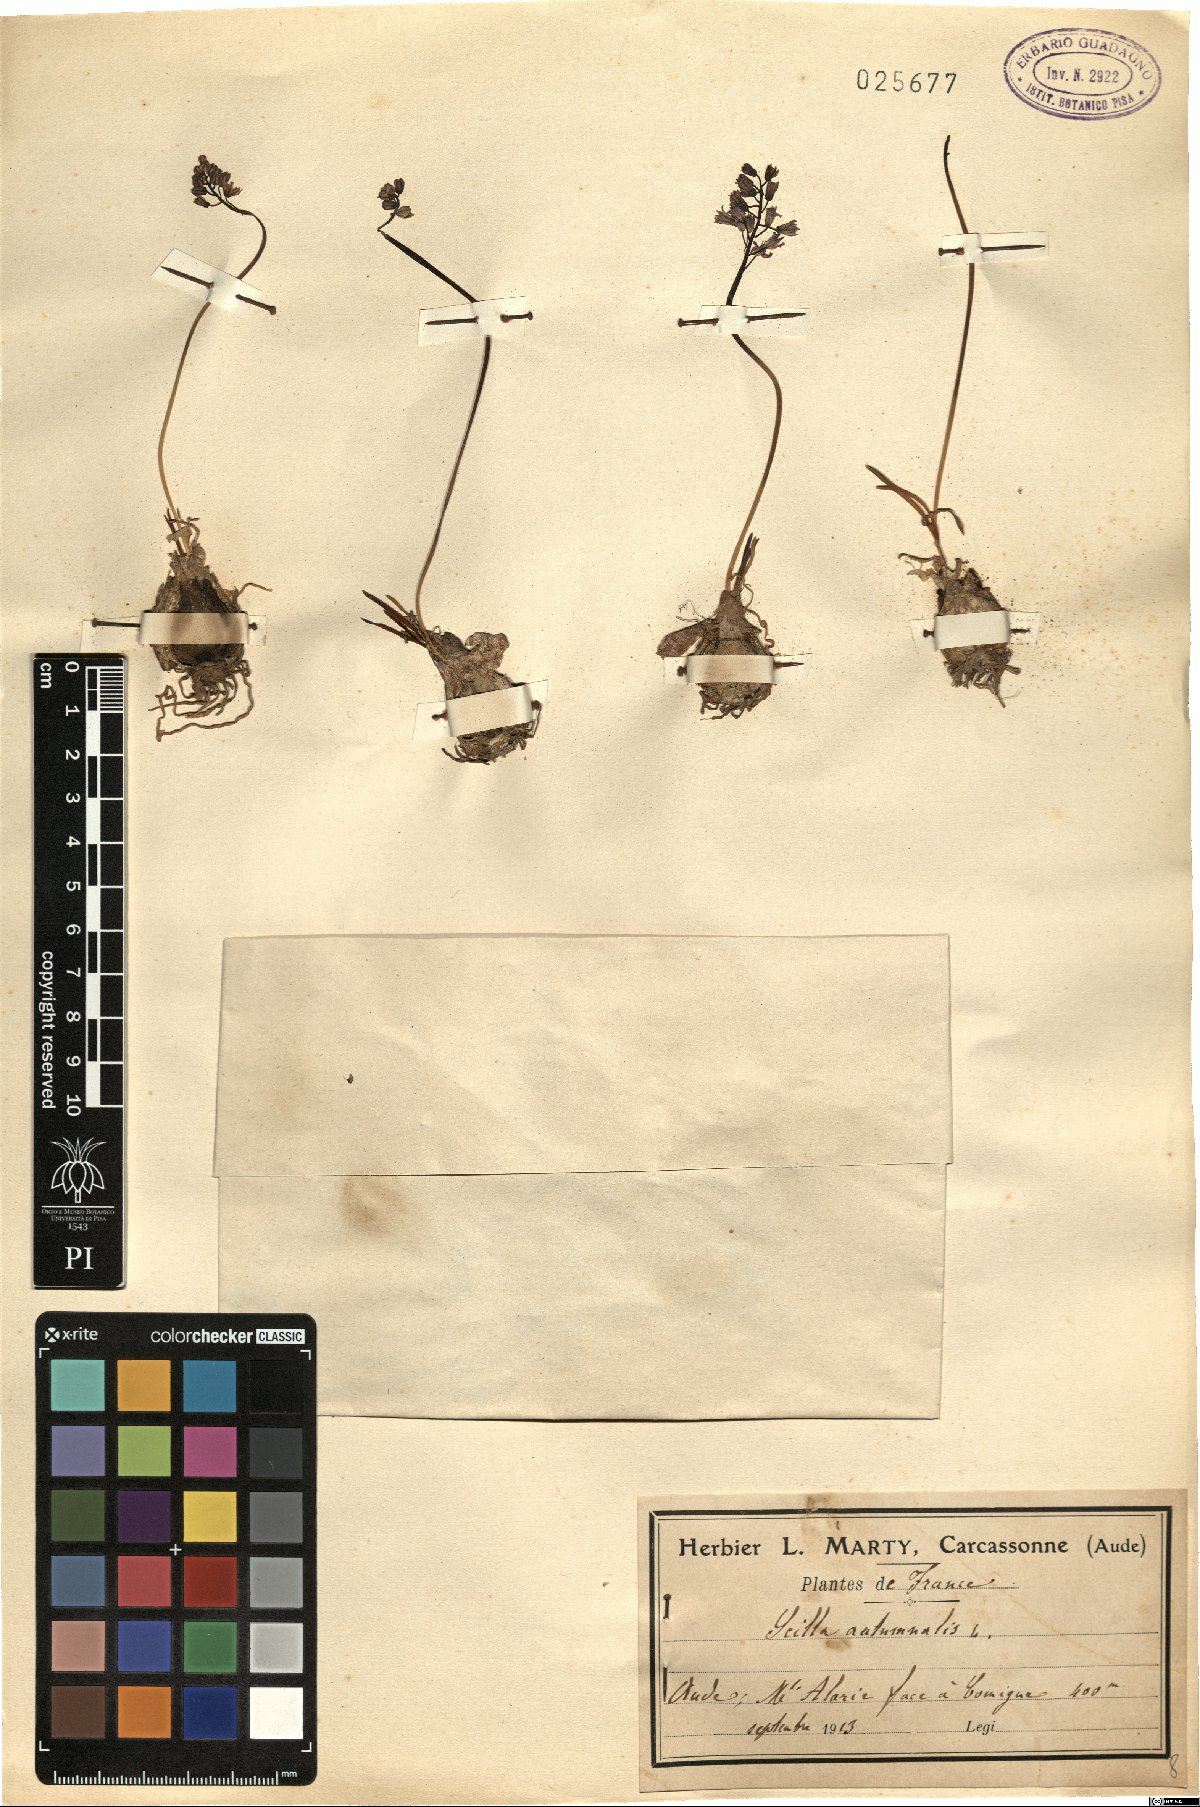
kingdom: Plantae
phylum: Tracheophyta
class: Liliopsida
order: Asparagales
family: Asparagaceae
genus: Prospero
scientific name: Prospero autumnale
